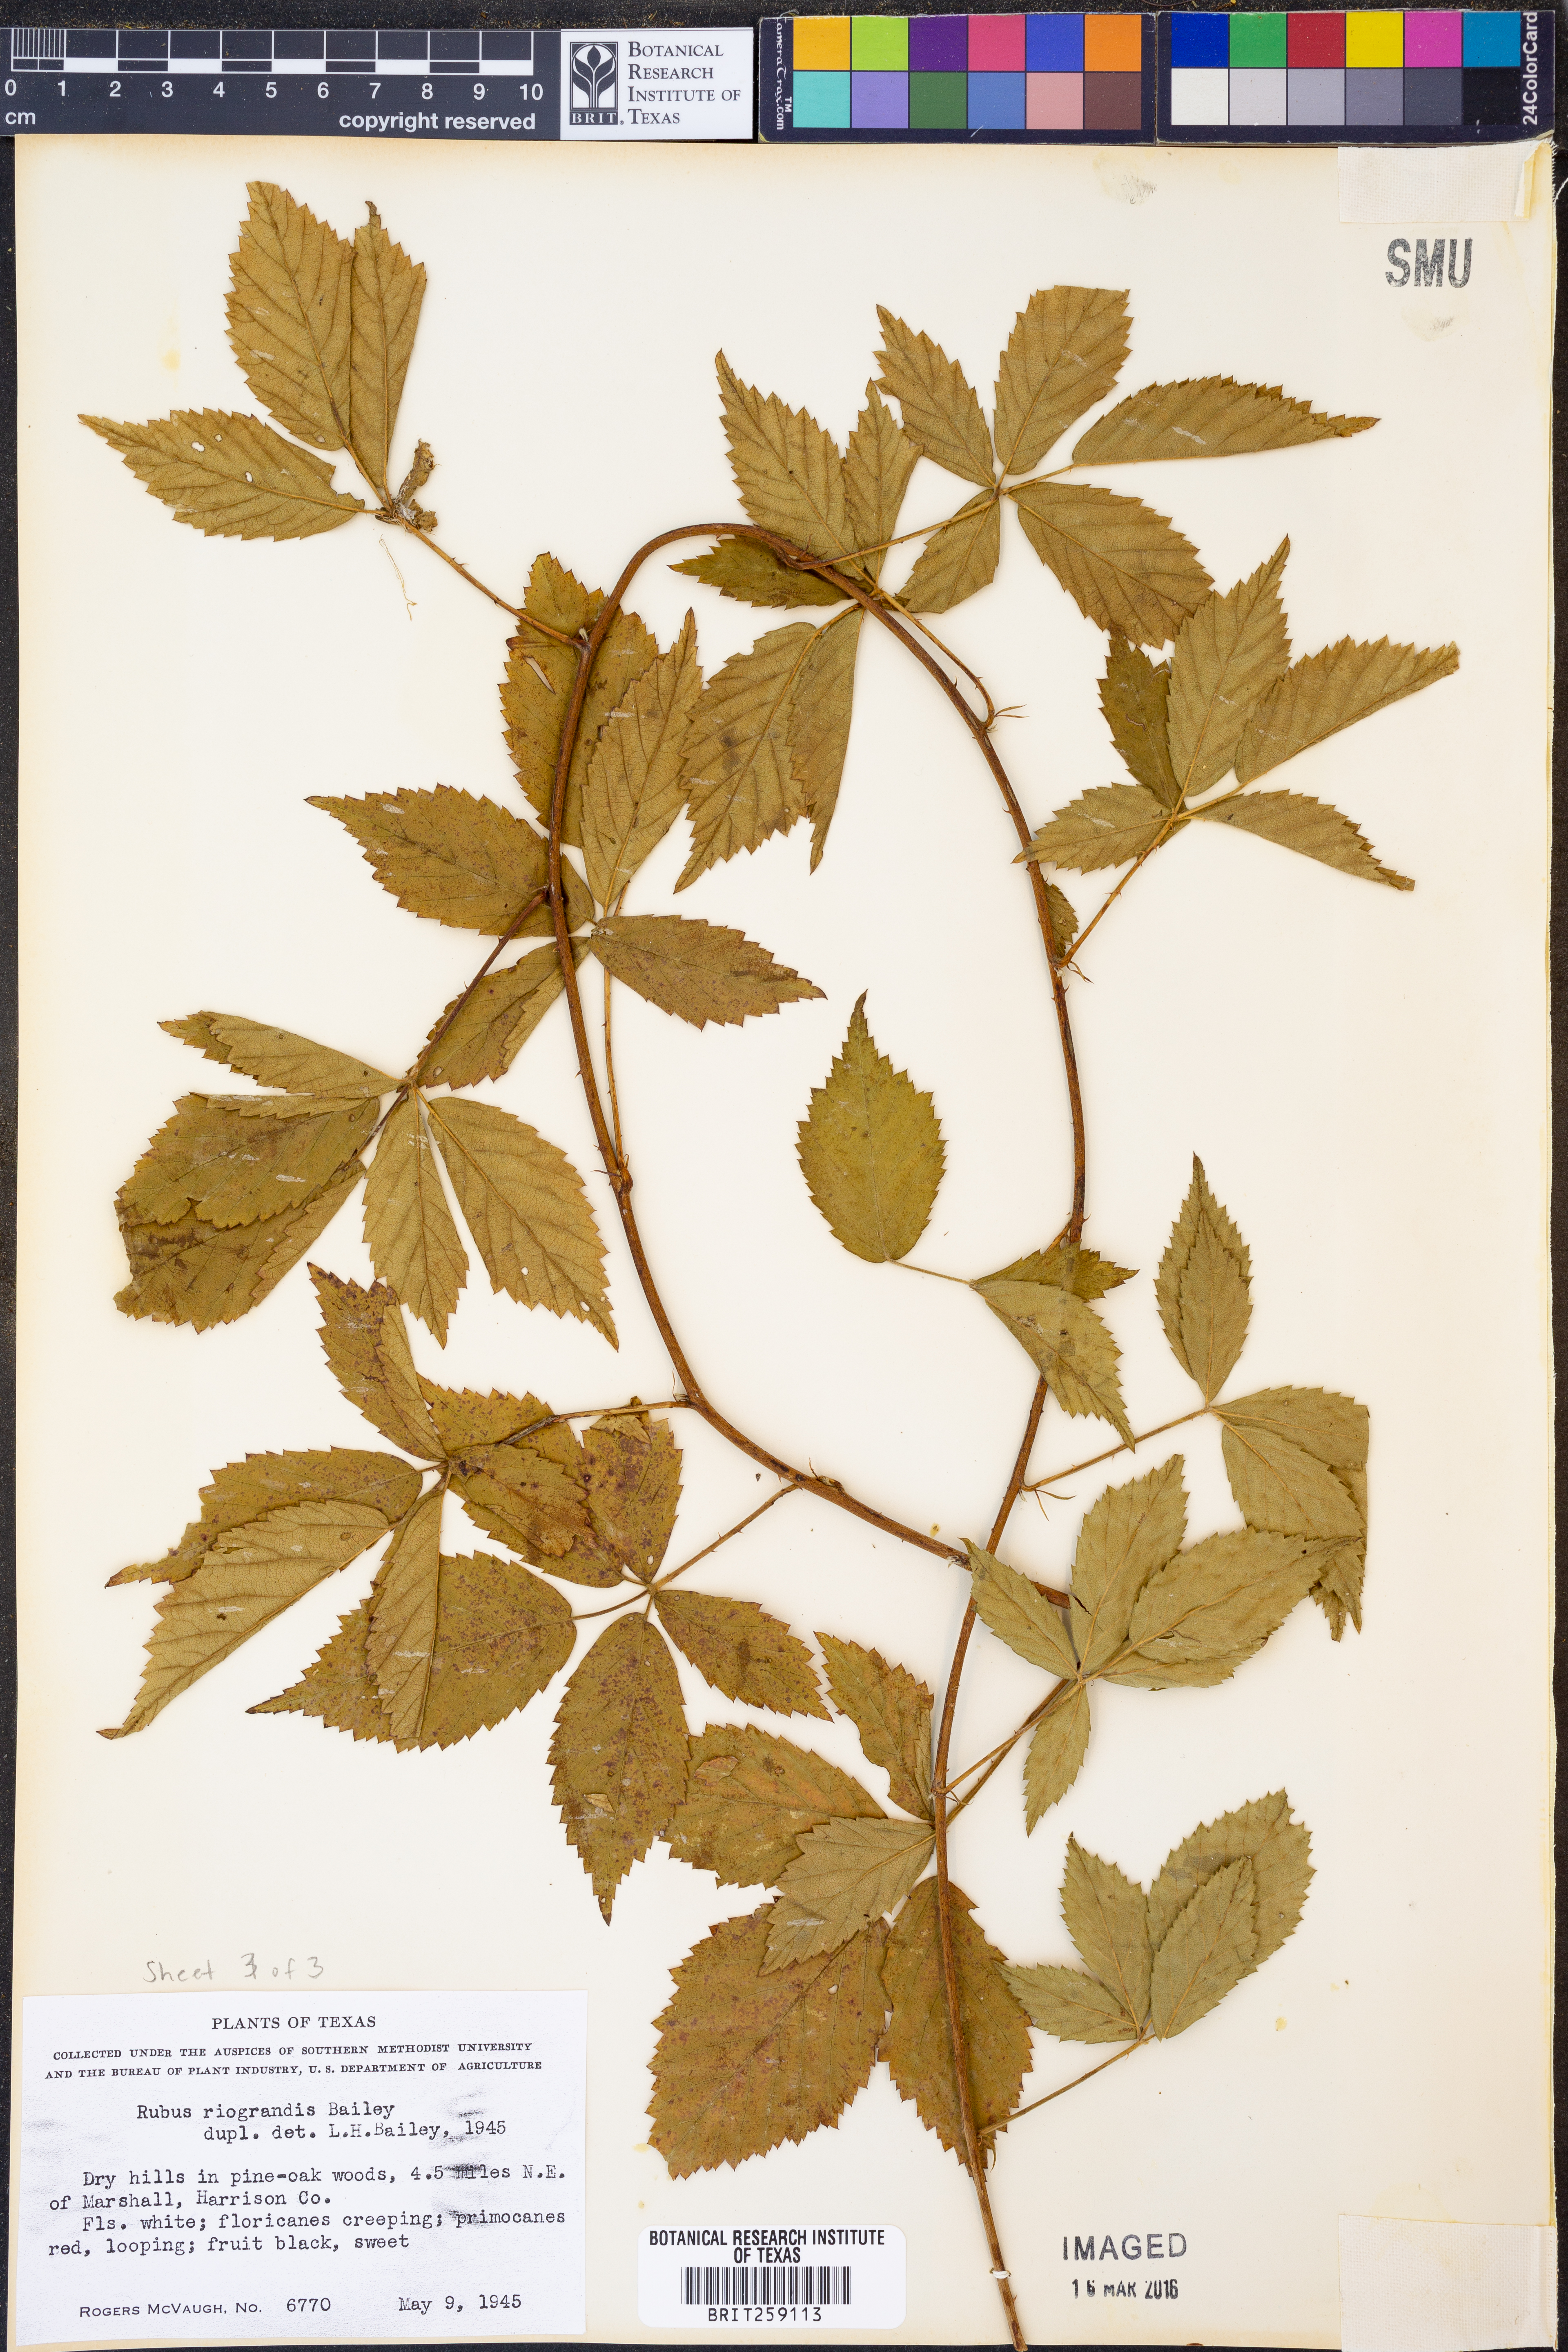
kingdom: Plantae
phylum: Tracheophyta
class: Magnoliopsida
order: Rosales
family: Rosaceae
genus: Rubus
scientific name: Rubus riograndis
